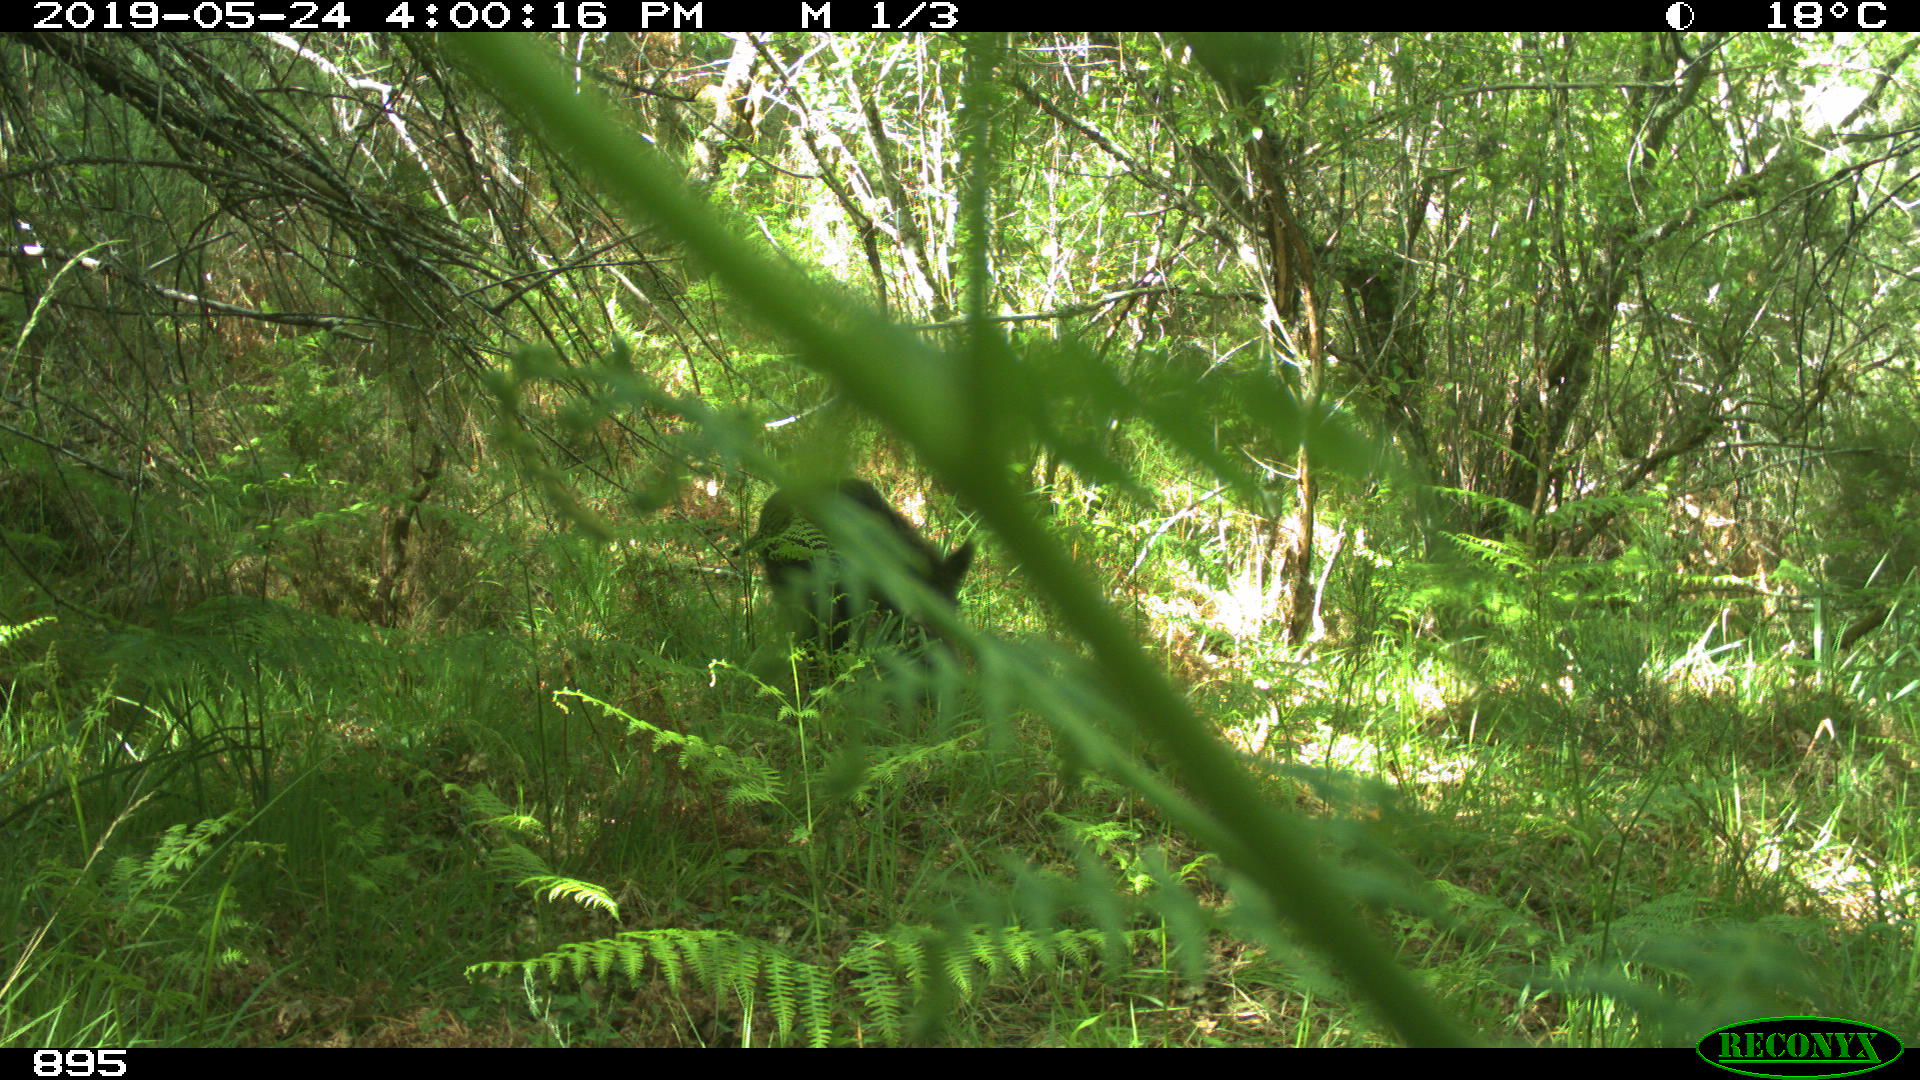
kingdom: Animalia
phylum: Chordata
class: Mammalia
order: Artiodactyla
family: Suidae
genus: Sus
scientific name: Sus scrofa
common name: Wild boar
